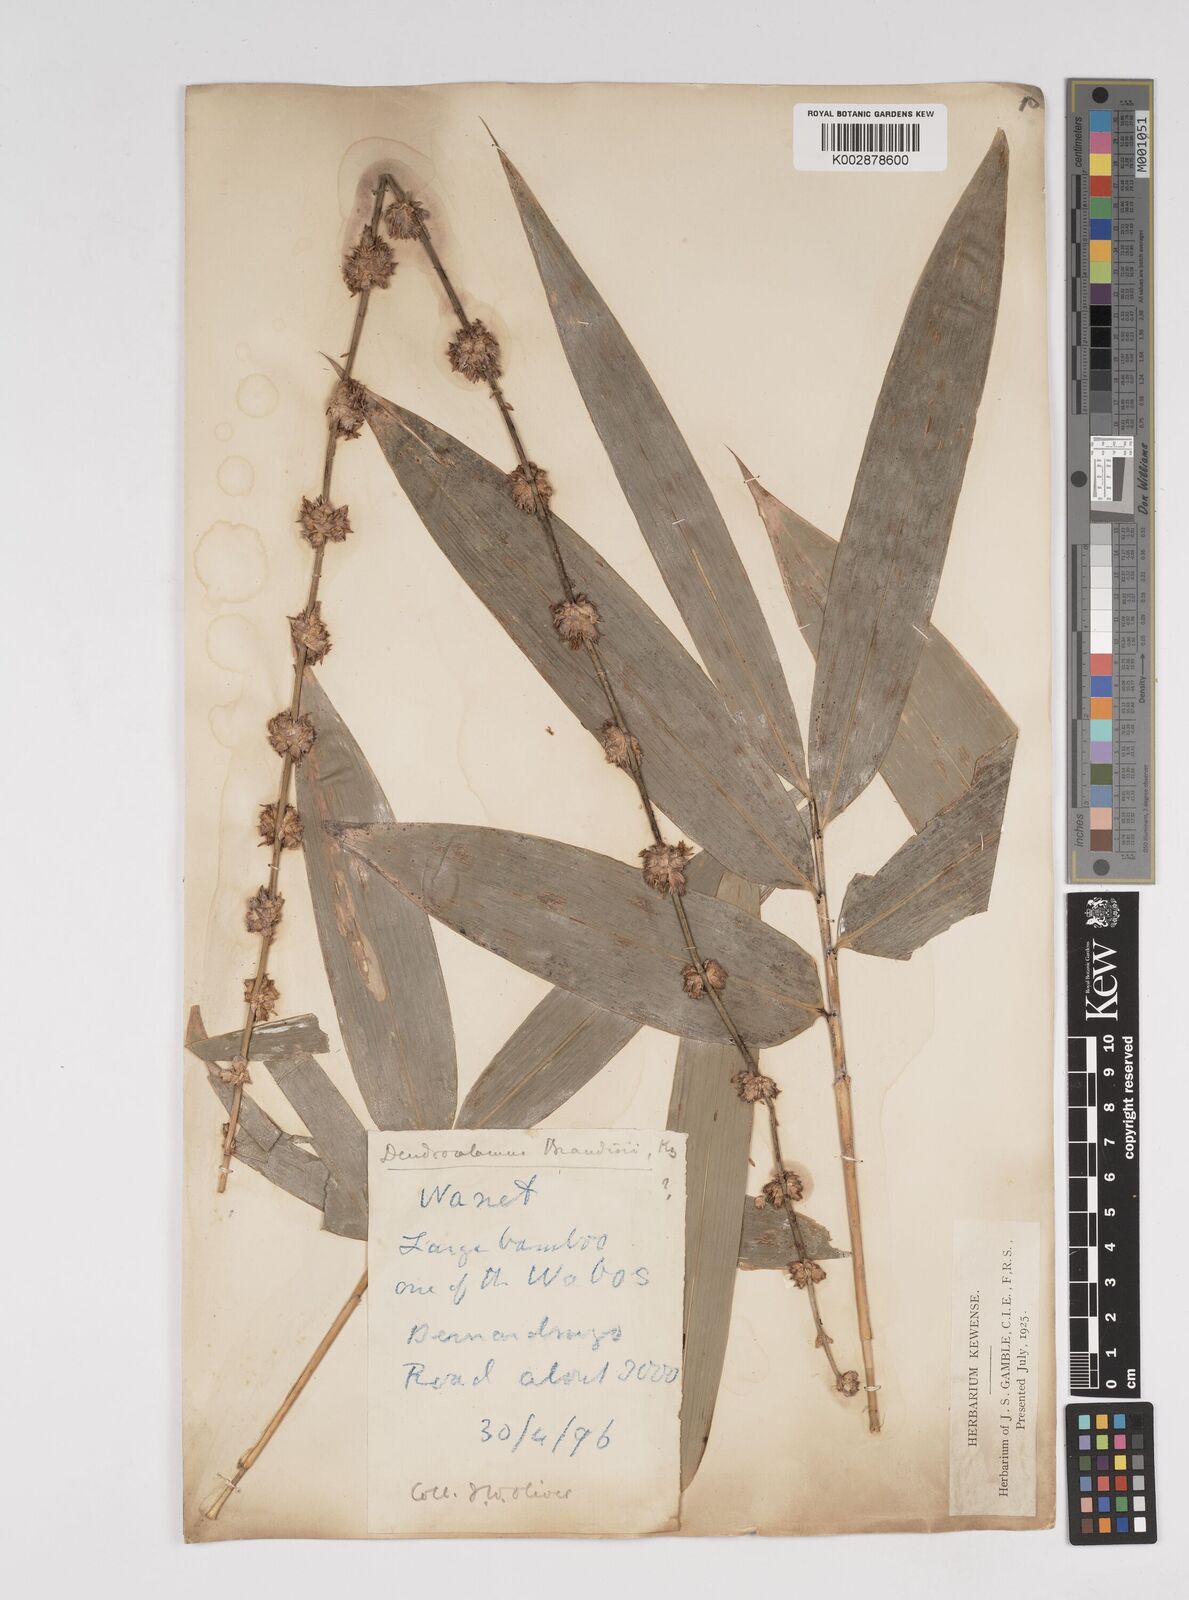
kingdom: Plantae
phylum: Tracheophyta
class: Liliopsida
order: Poales
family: Poaceae
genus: Dendrocalamus
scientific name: Dendrocalamus brandisii
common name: Velvetleaf bamboo
